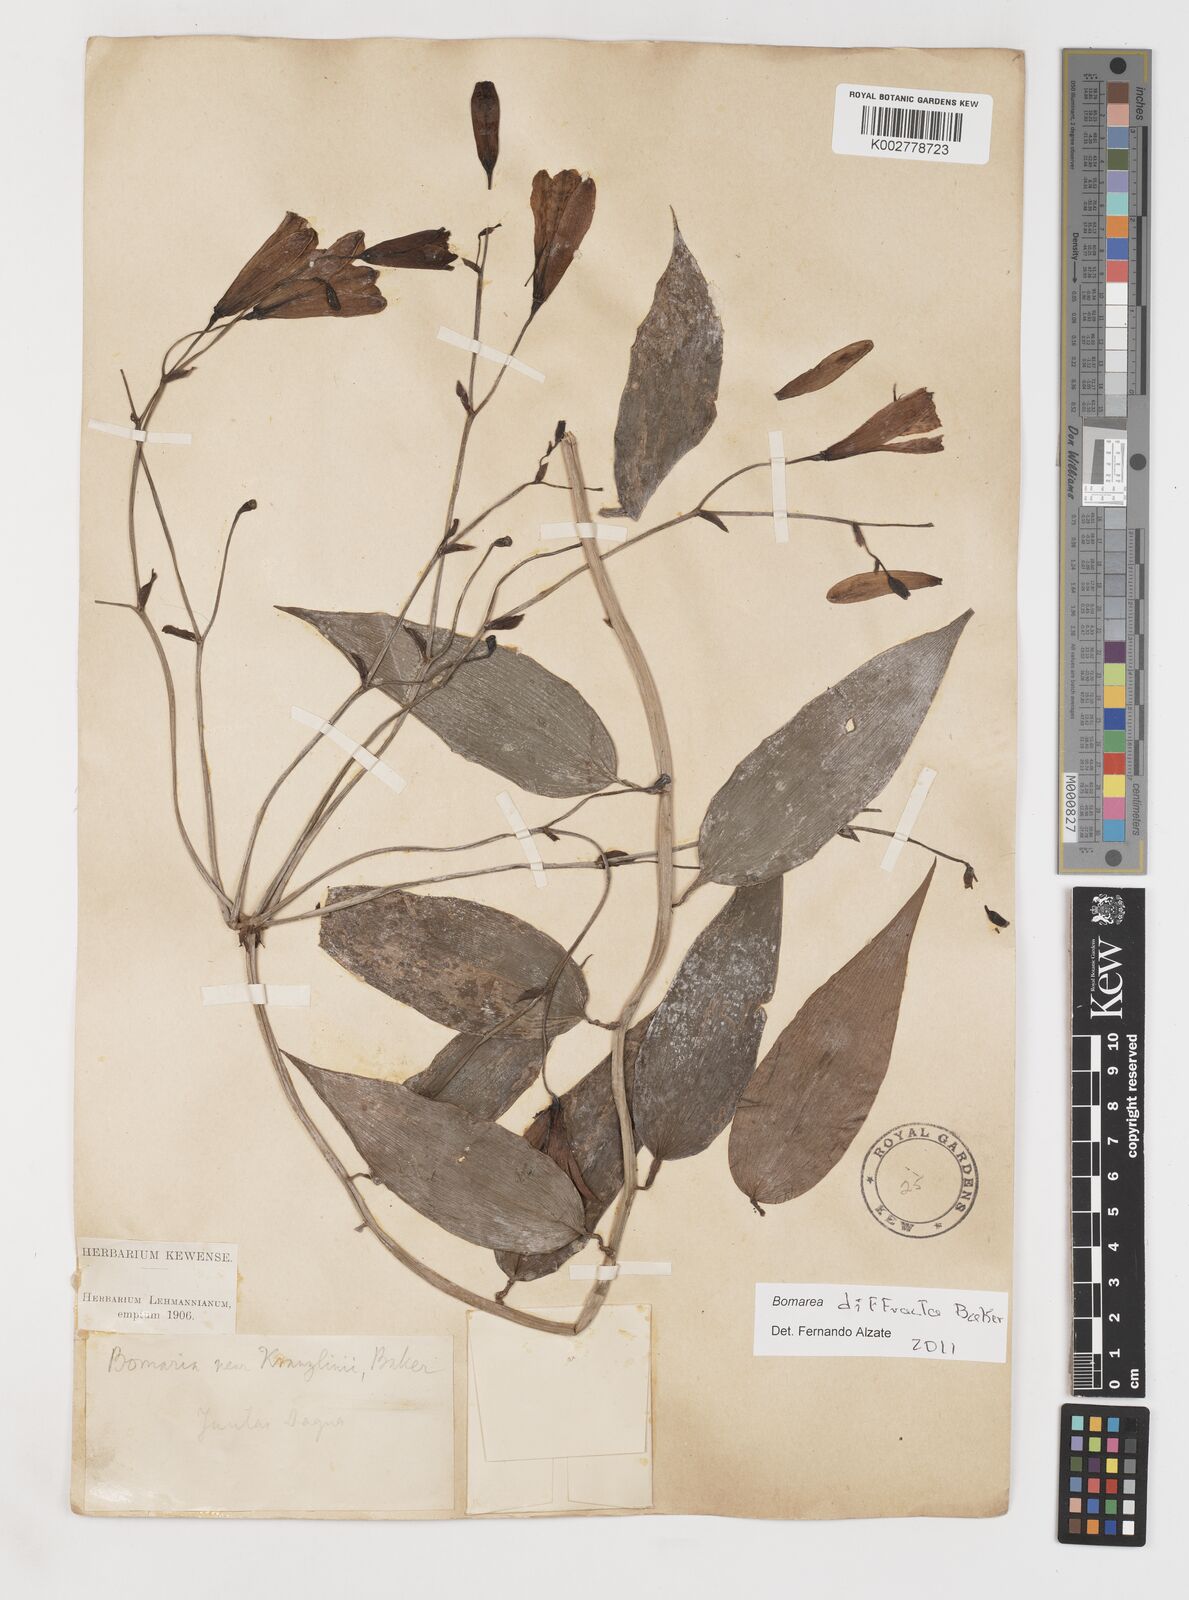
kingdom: Plantae
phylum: Tracheophyta
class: Liliopsida
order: Liliales
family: Alstroemeriaceae
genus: Bomarea
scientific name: Bomarea diffracta
